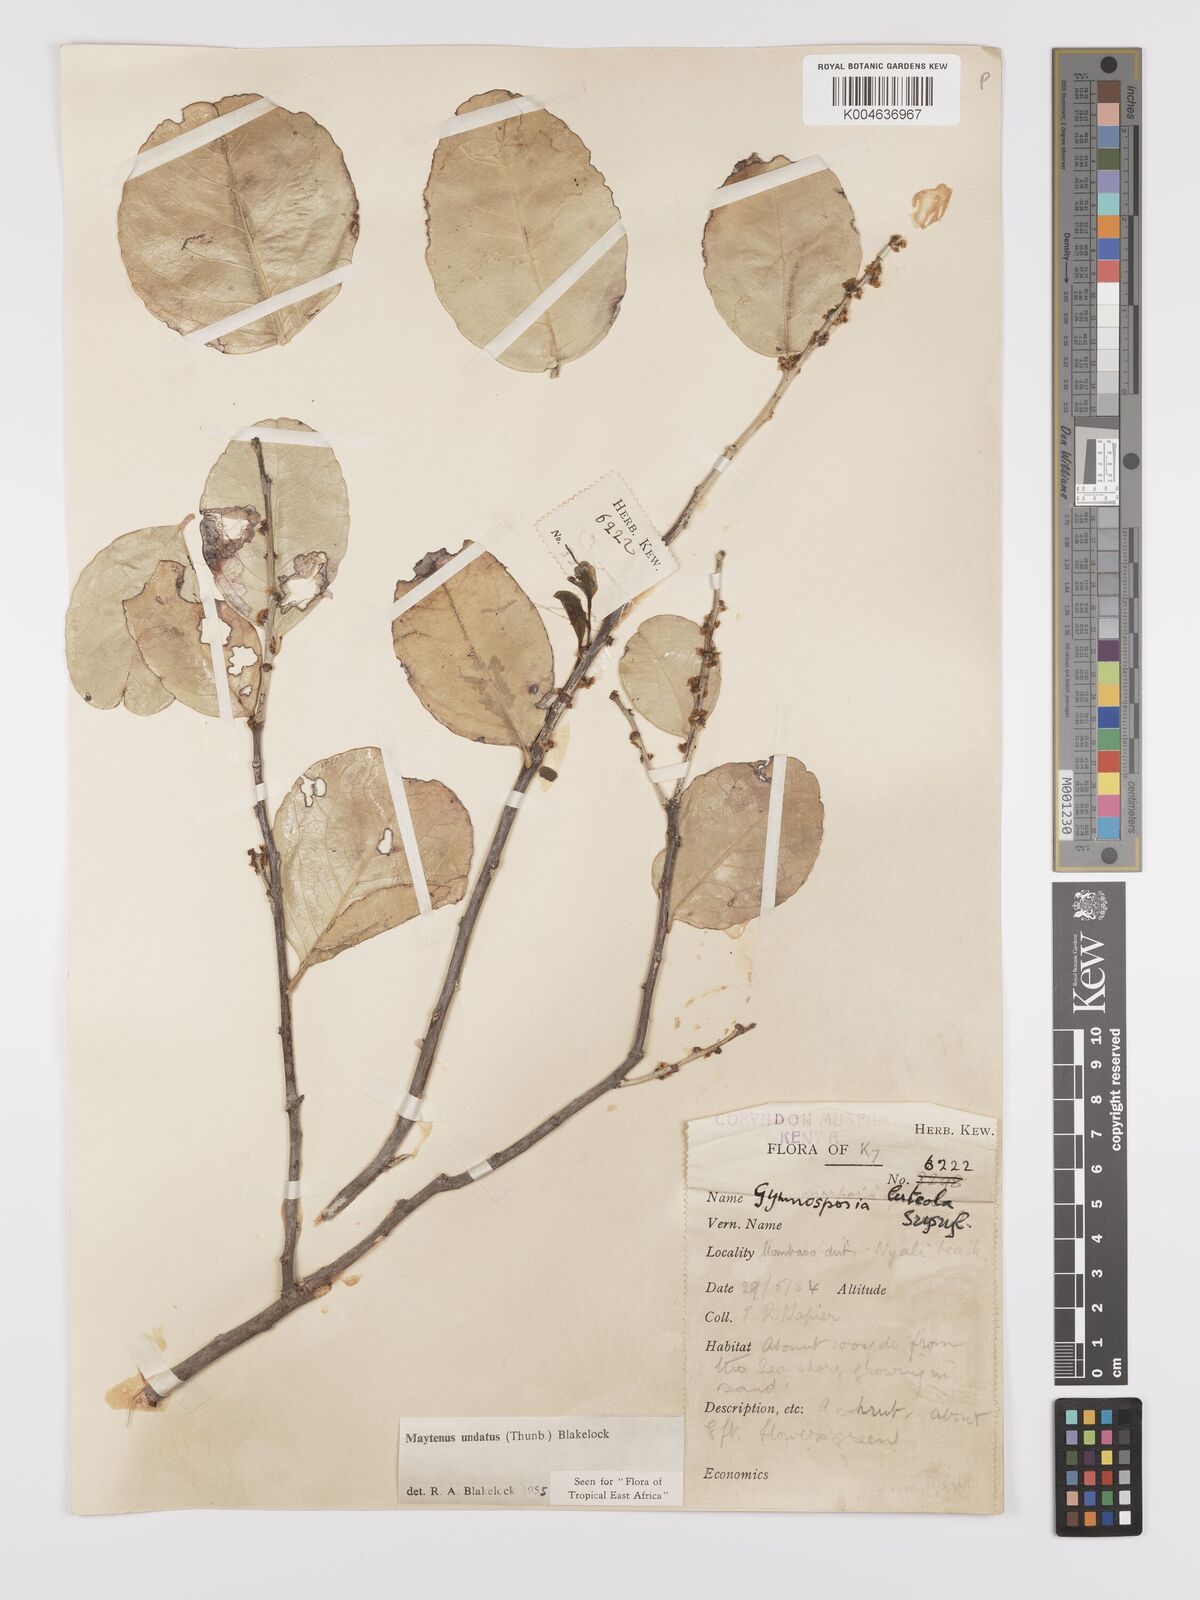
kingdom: Plantae
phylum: Tracheophyta
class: Magnoliopsida
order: Celastrales
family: Celastraceae
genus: Gymnosporia
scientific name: Gymnosporia undata
